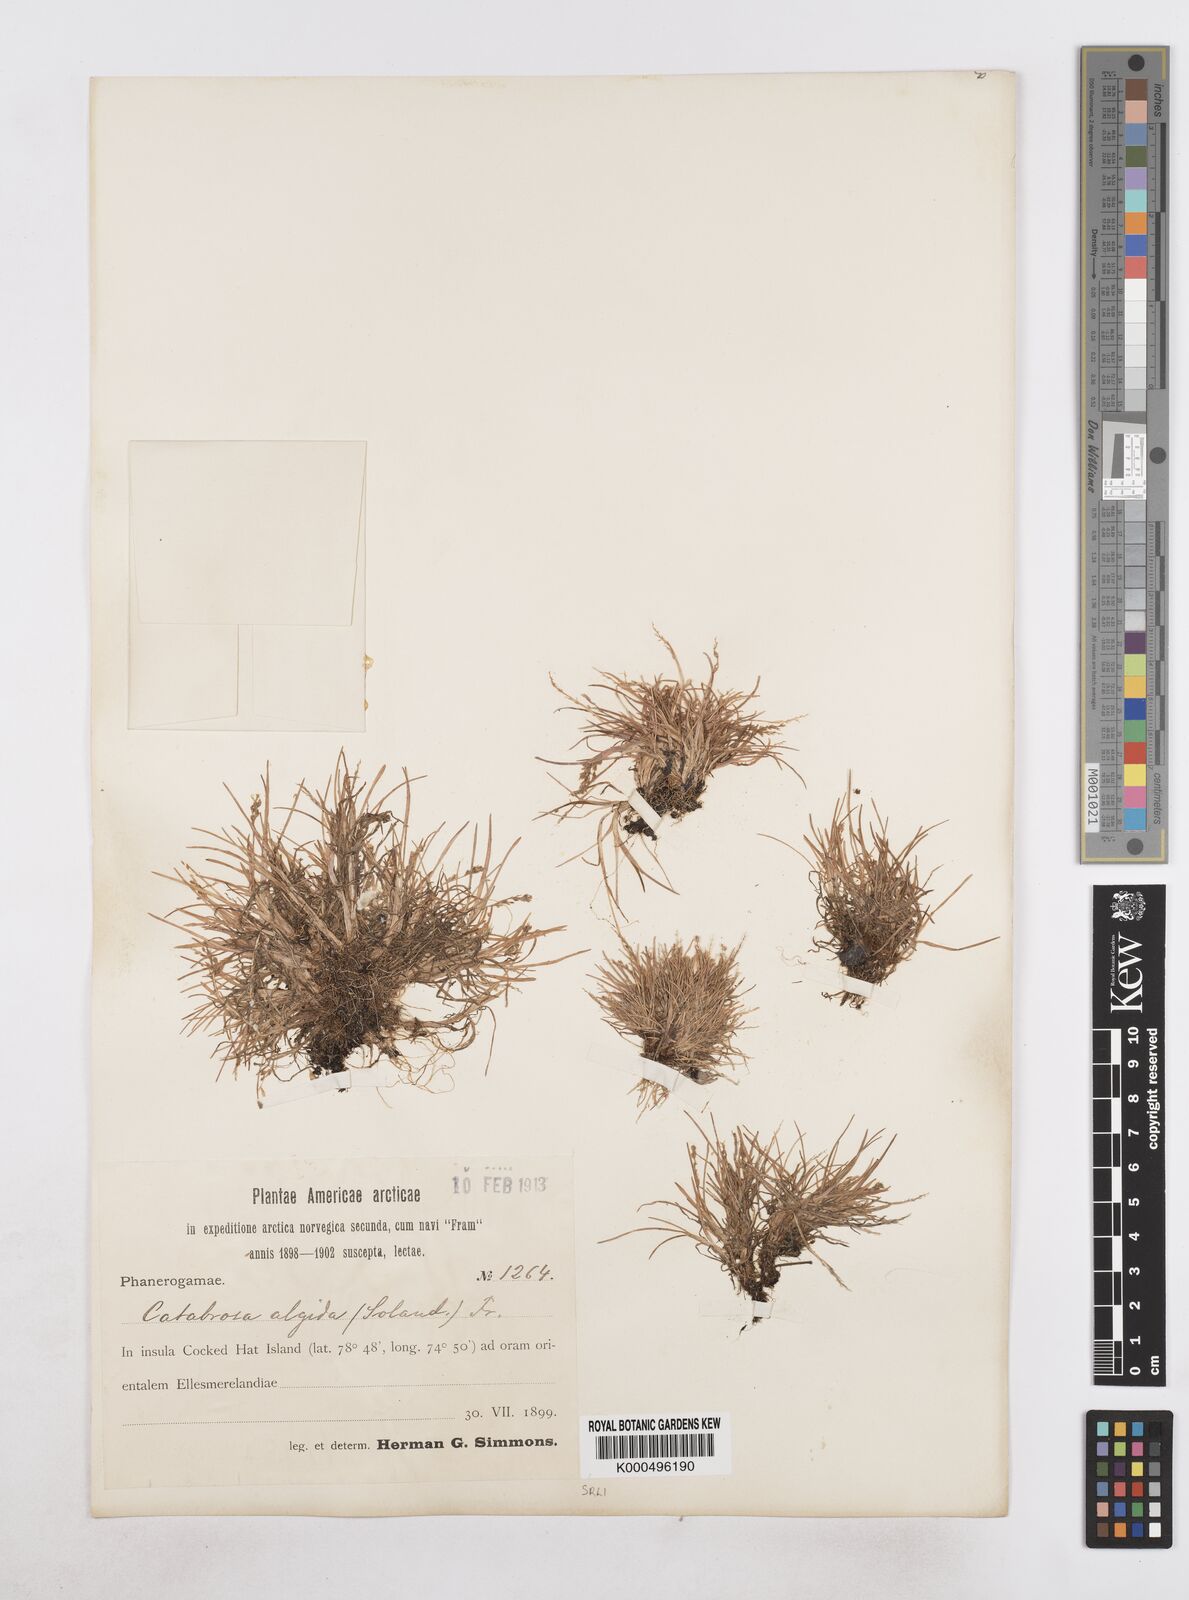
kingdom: Plantae
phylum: Tracheophyta
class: Liliopsida
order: Poales
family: Poaceae
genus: Phippsia
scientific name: Phippsia algida
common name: Ice grass
